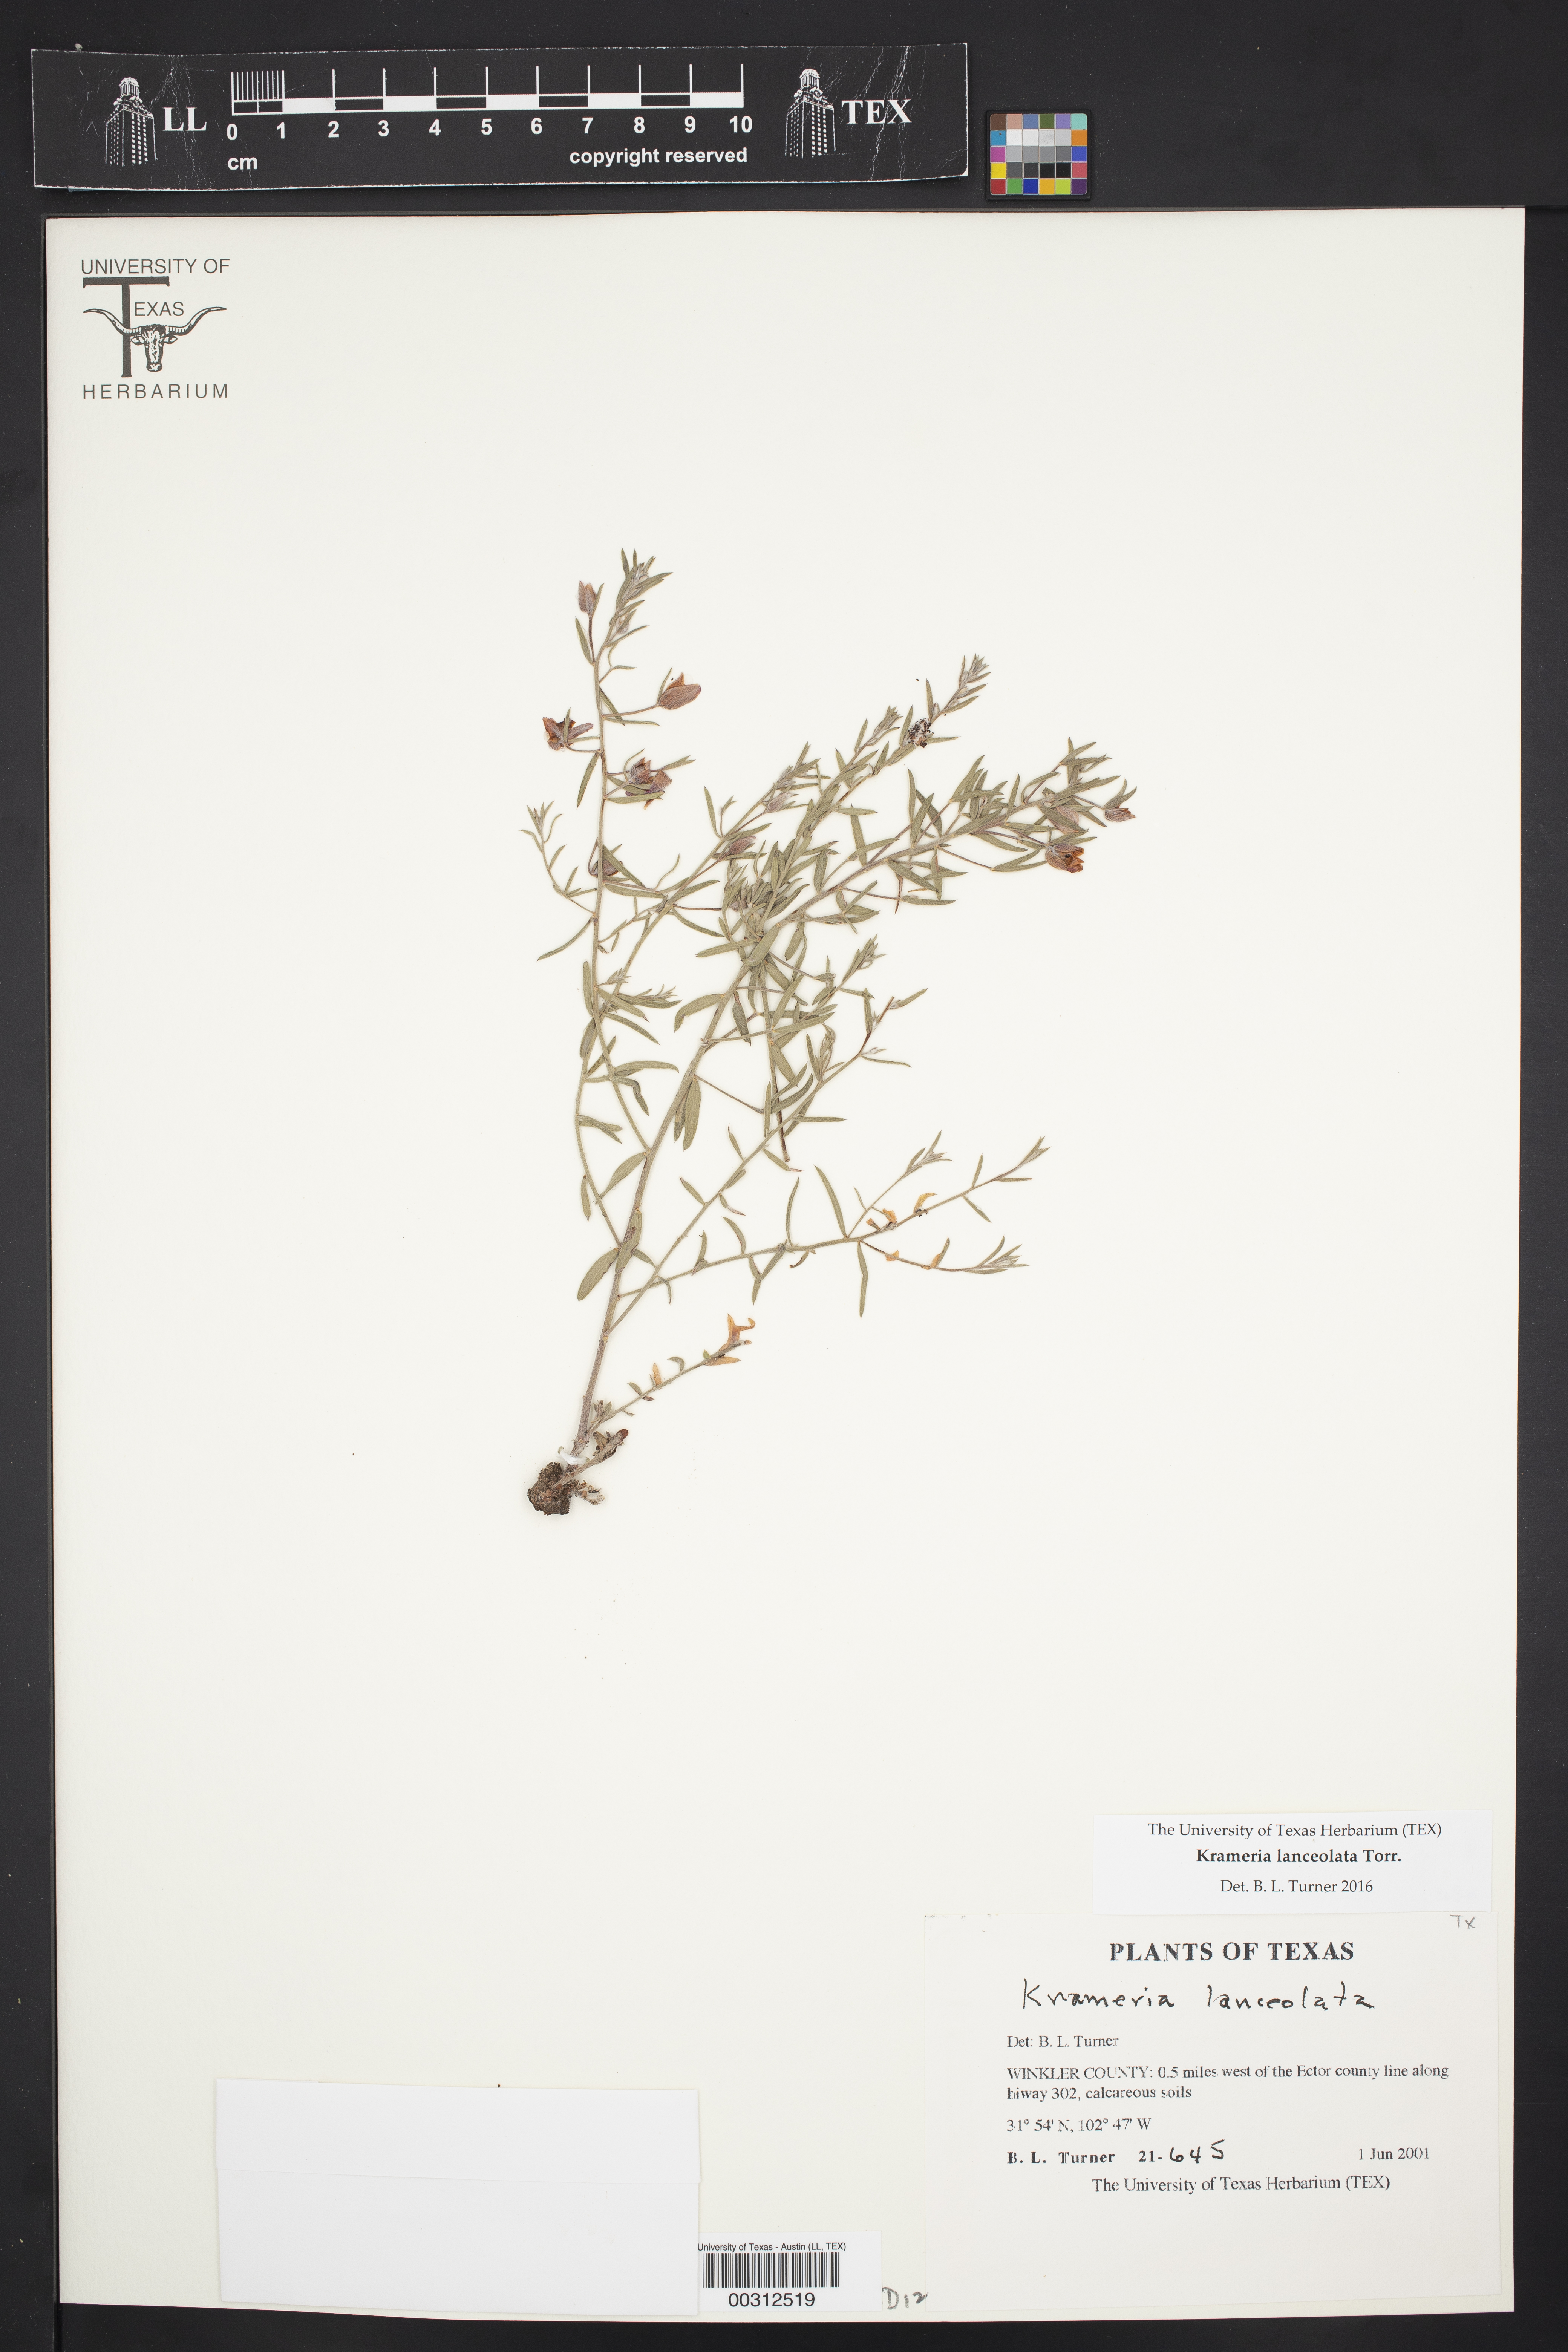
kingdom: Plantae
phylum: Tracheophyta
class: Magnoliopsida
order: Zygophyllales
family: Krameriaceae
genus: Krameria
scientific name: Krameria lanceolata
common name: Ratany
